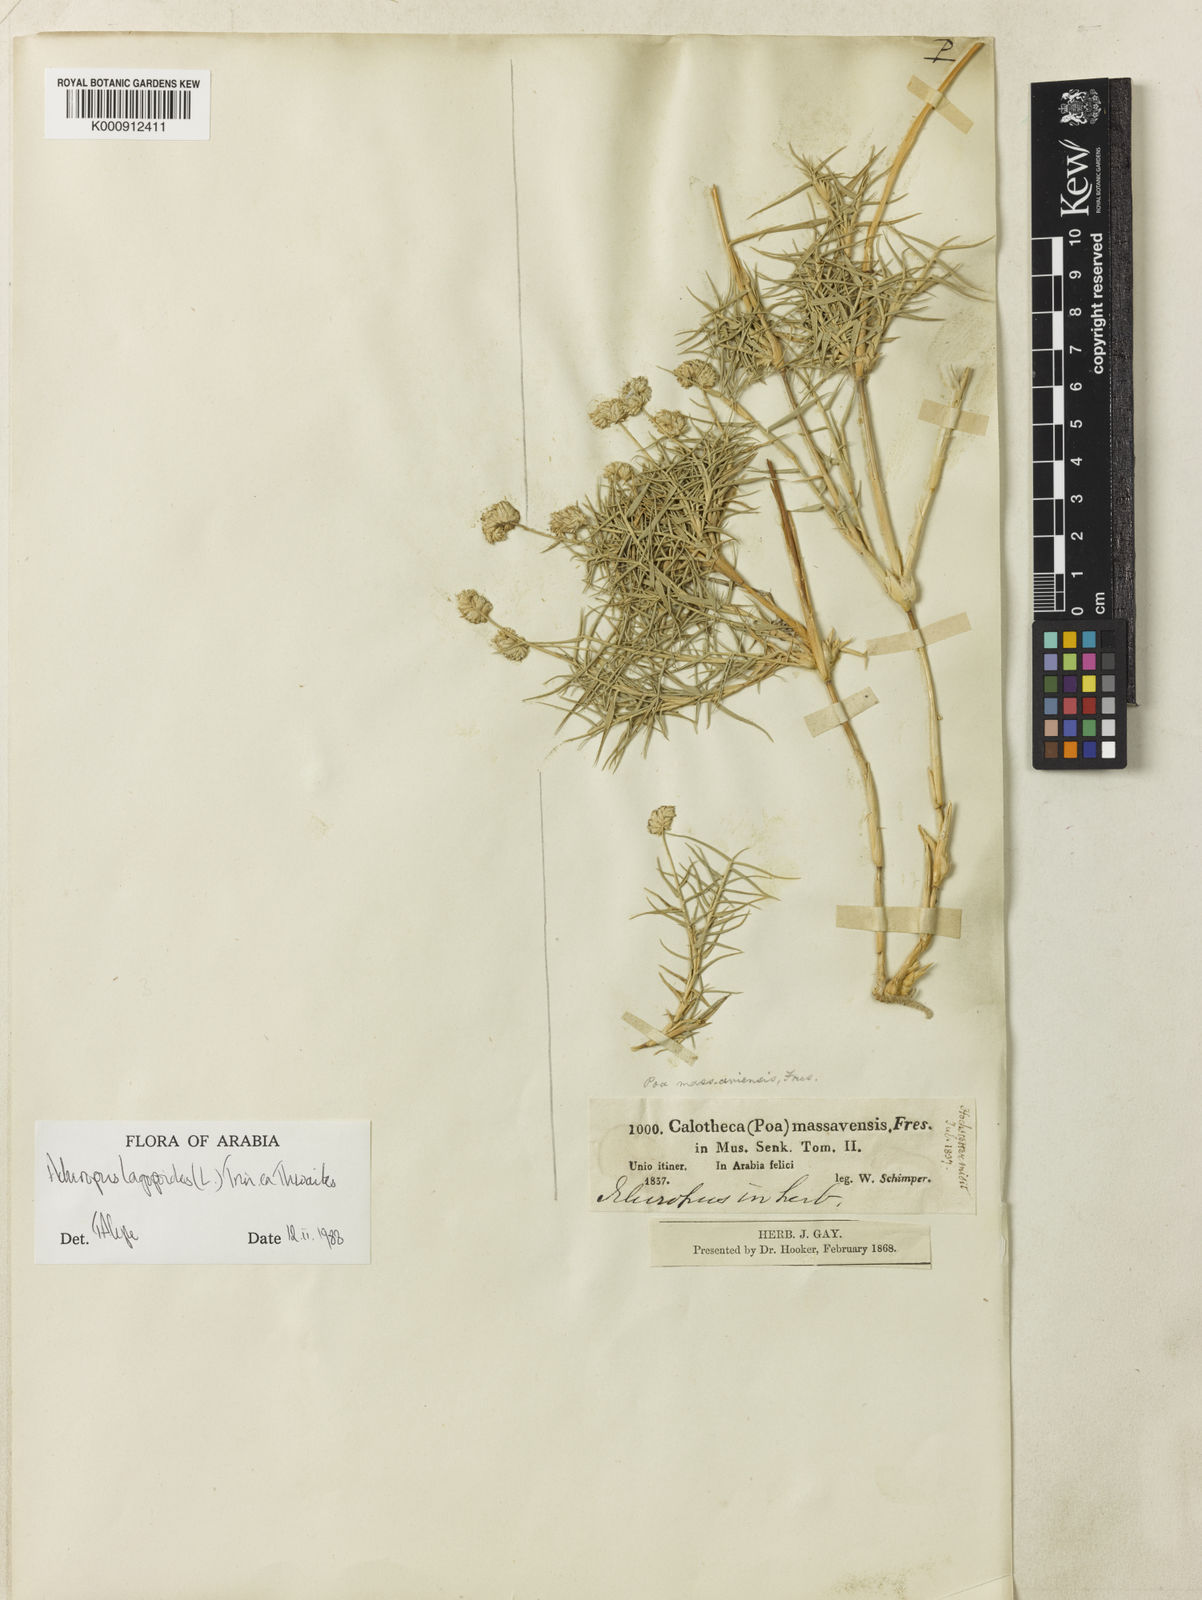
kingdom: Plantae
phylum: Tracheophyta
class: Liliopsida
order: Poales
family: Poaceae
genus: Aeluropus
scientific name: Aeluropus lagopoides
